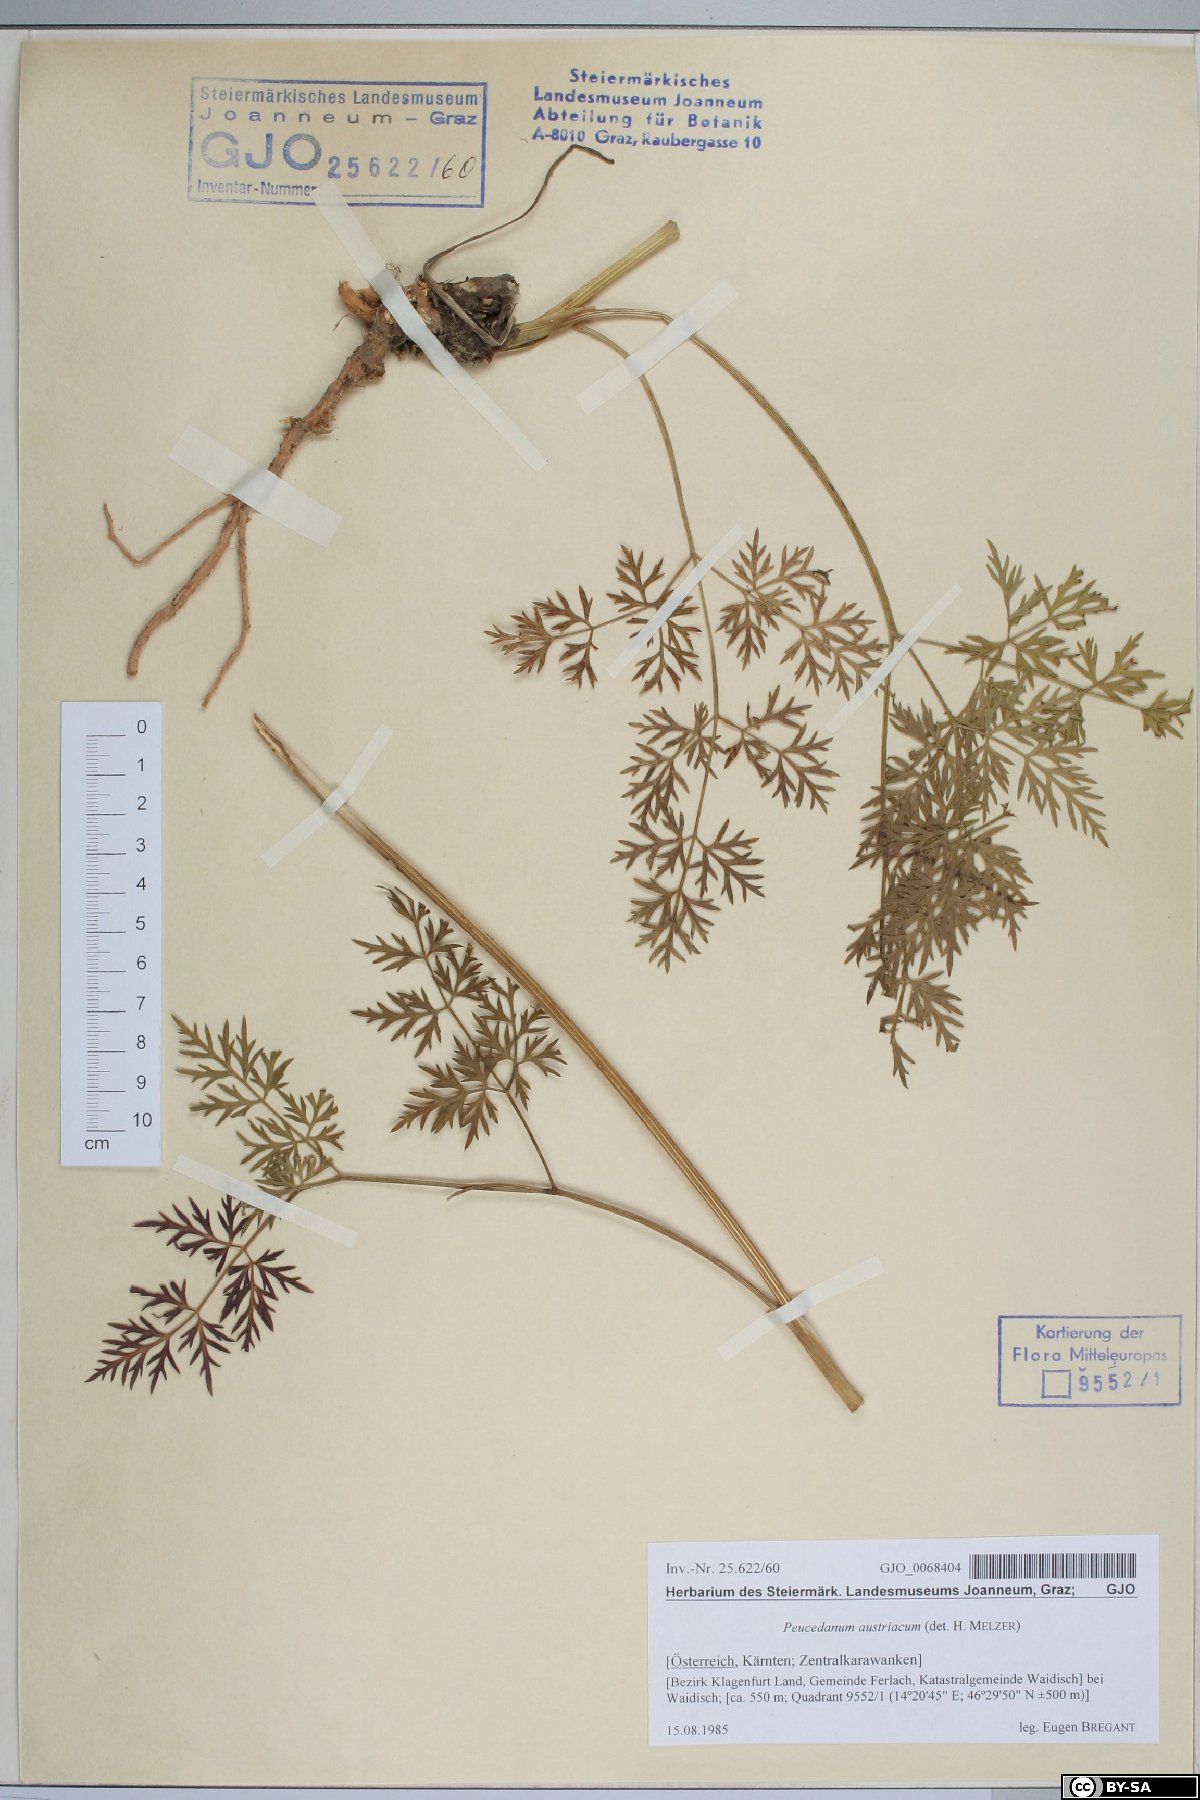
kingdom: Plantae
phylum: Tracheophyta
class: Magnoliopsida
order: Apiales
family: Apiaceae
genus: Peucedanum
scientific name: Peucedanum austriacum
